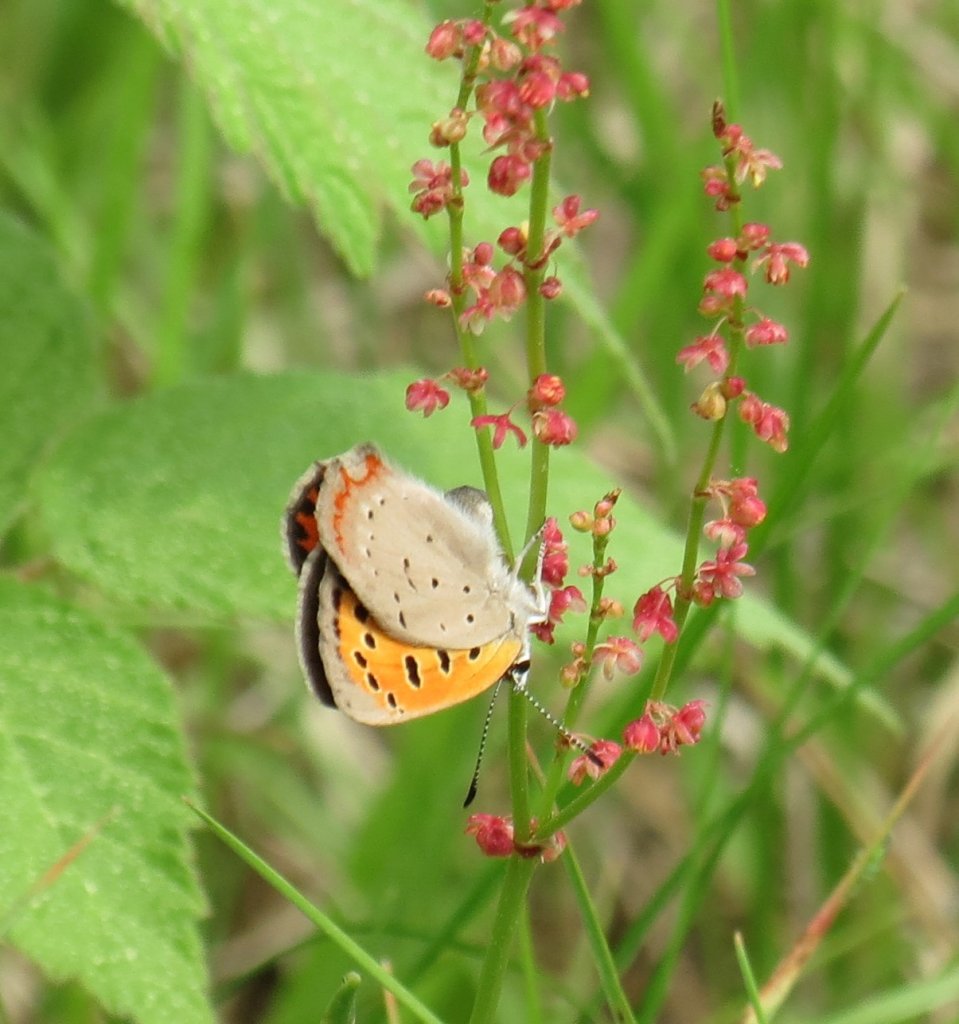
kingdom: Animalia
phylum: Arthropoda
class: Insecta
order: Lepidoptera
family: Lycaenidae
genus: Lycaena
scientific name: Lycaena phlaeas
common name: American Copper
